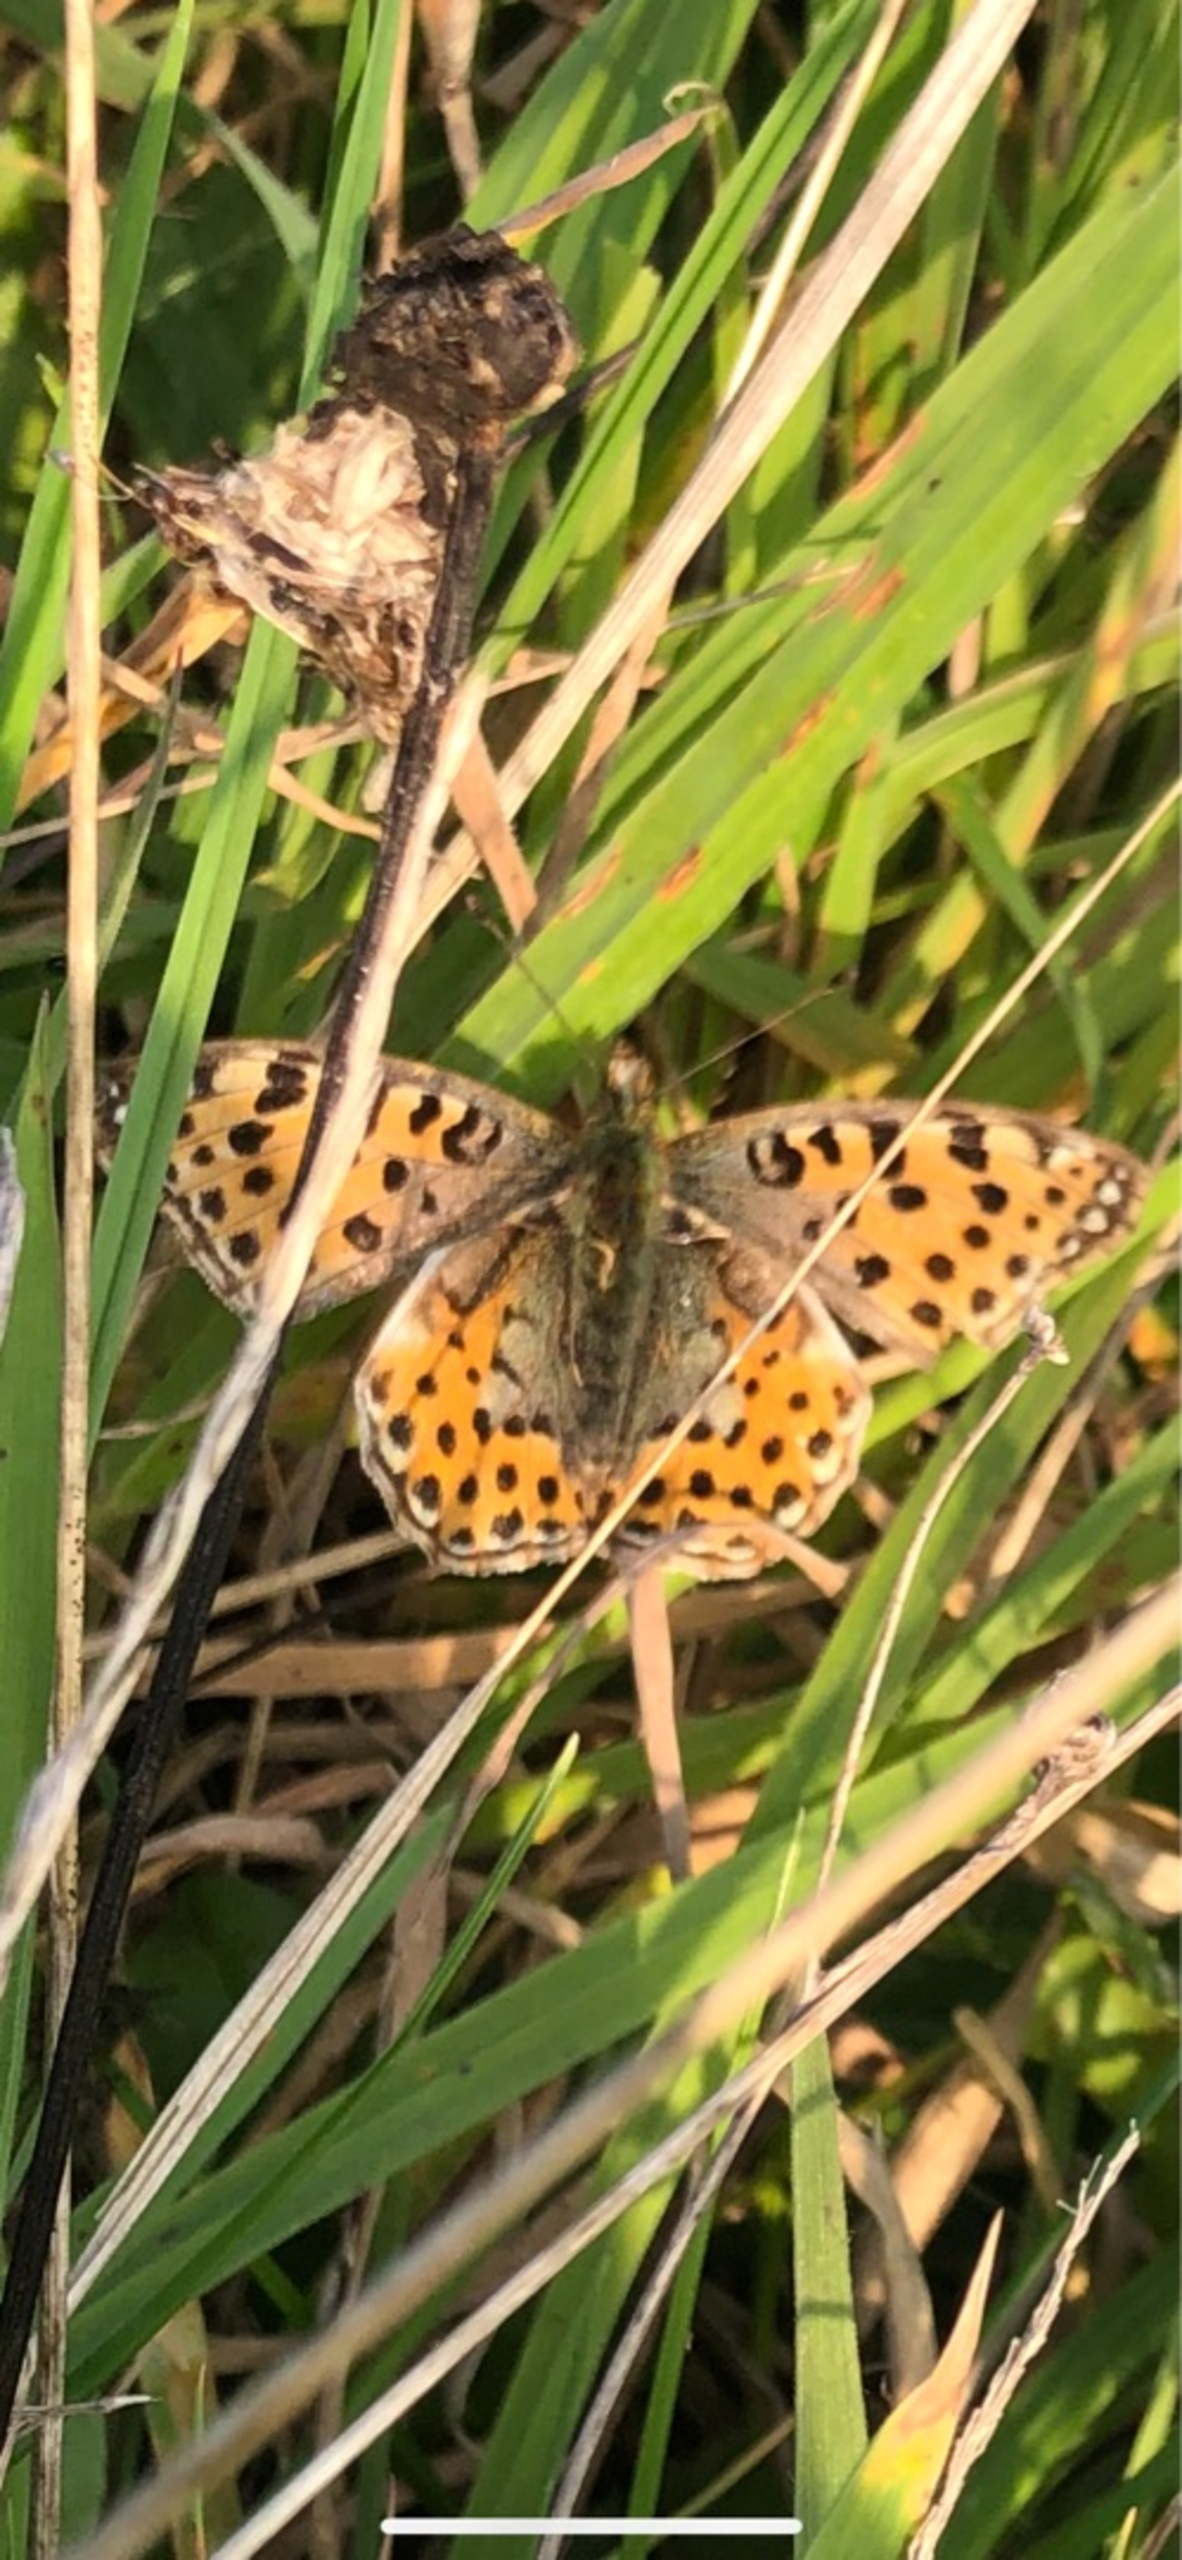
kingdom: Animalia
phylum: Arthropoda
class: Insecta
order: Lepidoptera
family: Nymphalidae
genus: Issoria
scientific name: Issoria lathonia
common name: Storplettet perlemorsommerfugl
